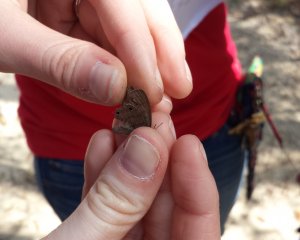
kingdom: Animalia
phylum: Arthropoda
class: Insecta
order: Lepidoptera
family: Nymphalidae
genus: Hermeuptychia
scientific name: Hermeuptychia hermes
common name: Carolina Satyr
